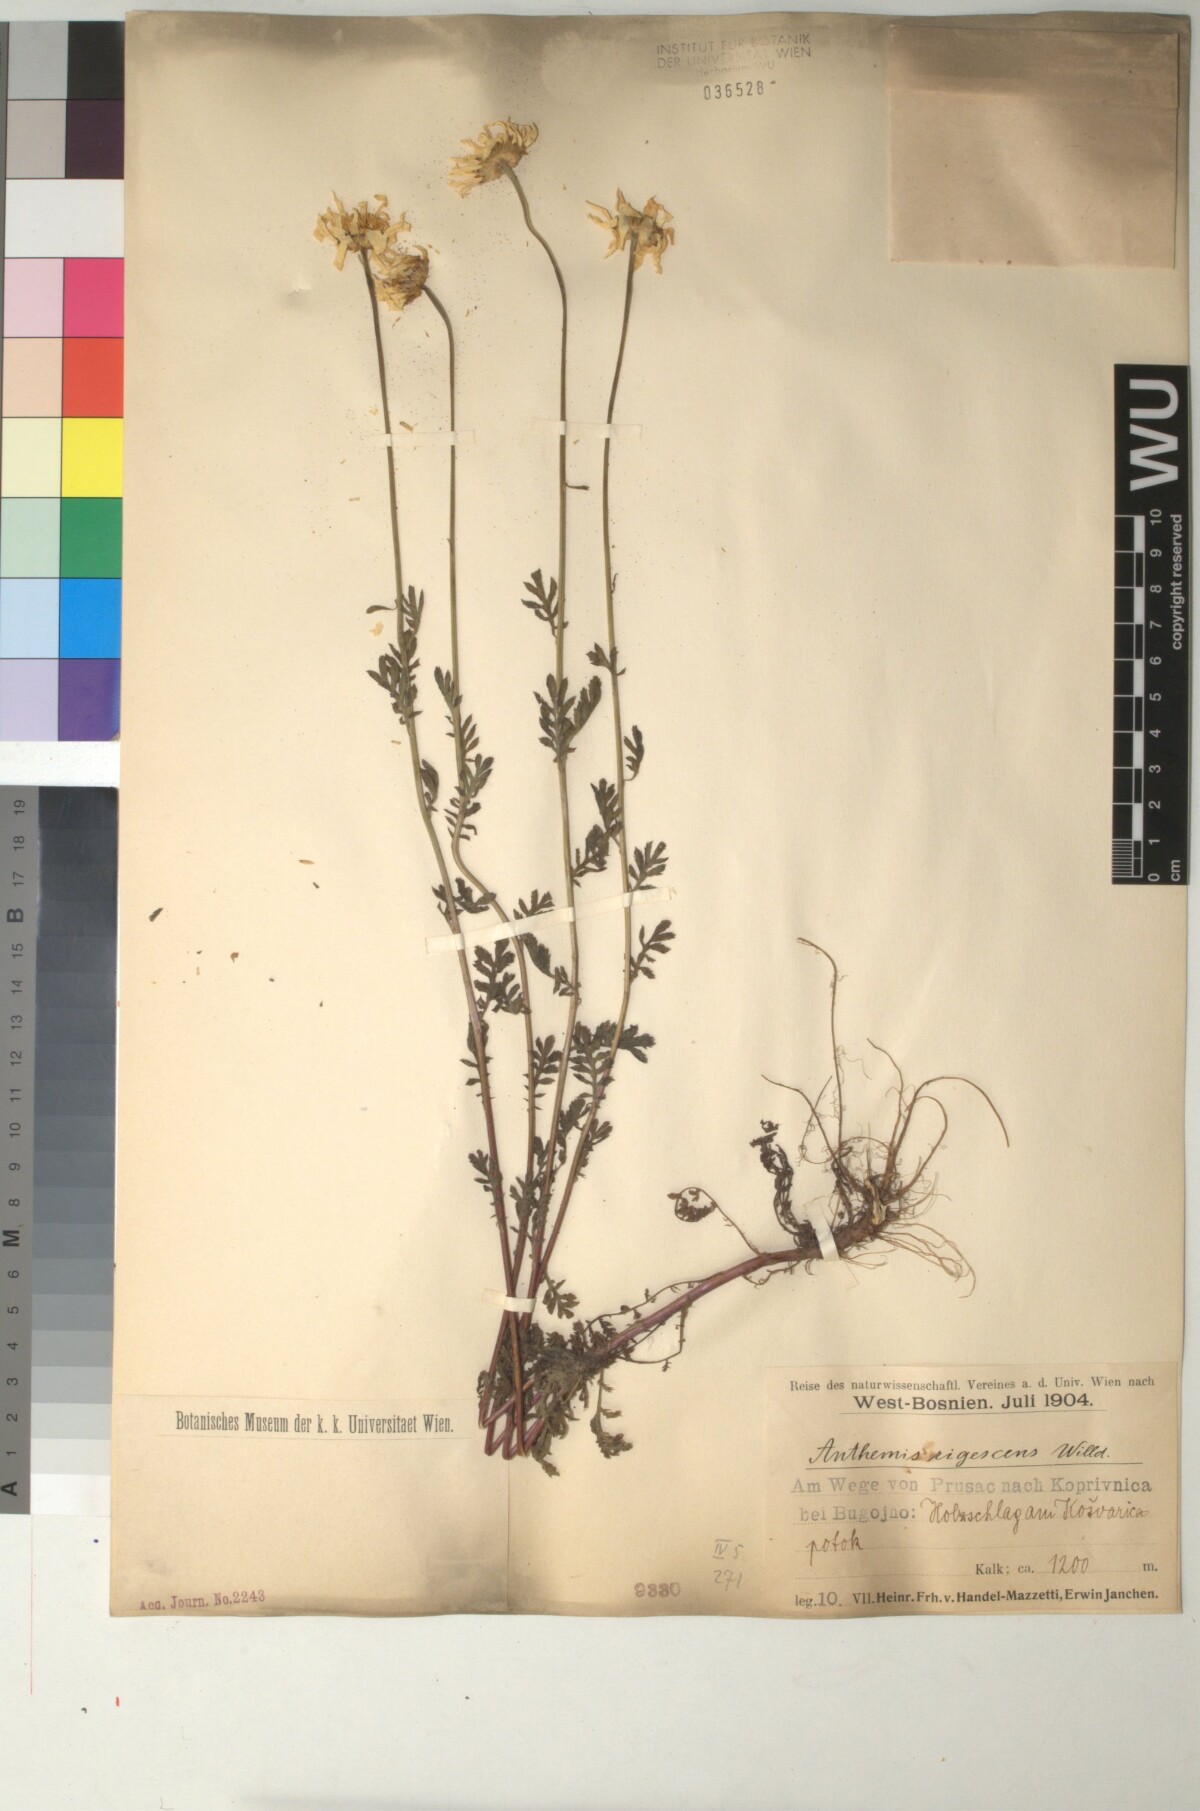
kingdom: Plantae
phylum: Tracheophyta
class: Magnoliopsida
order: Asterales
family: Asteraceae
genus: Cota
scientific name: Cota triumfetti
